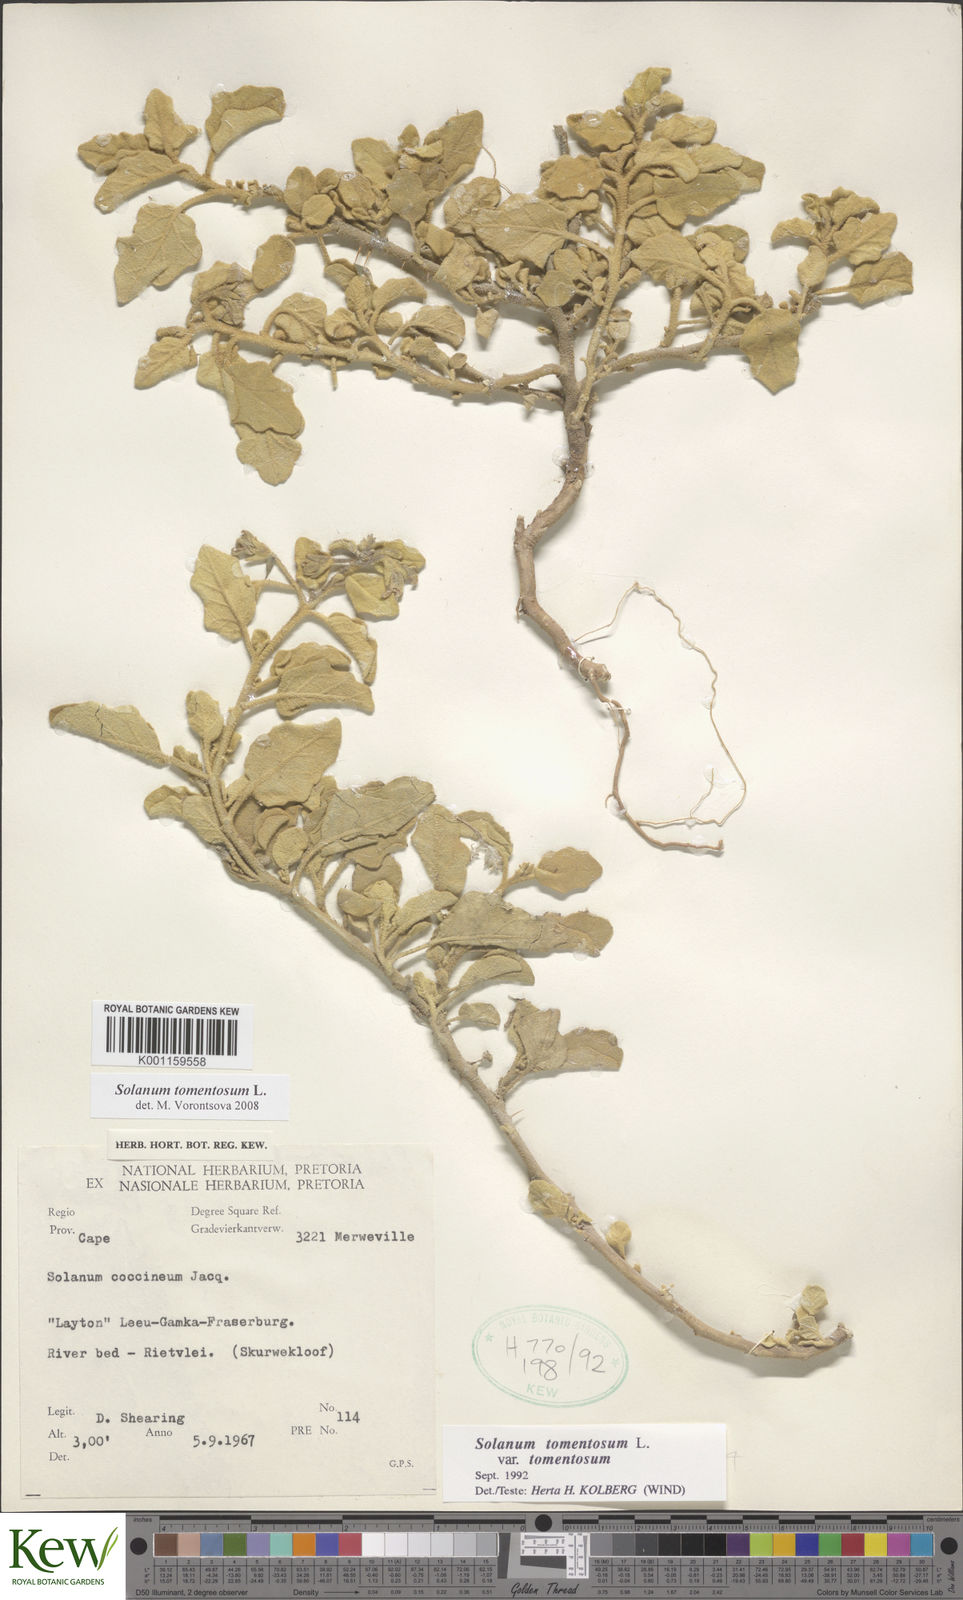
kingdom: Plantae
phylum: Tracheophyta
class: Magnoliopsida
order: Solanales
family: Solanaceae
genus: Solanum
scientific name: Solanum tomentosum
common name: Wild aubergine
